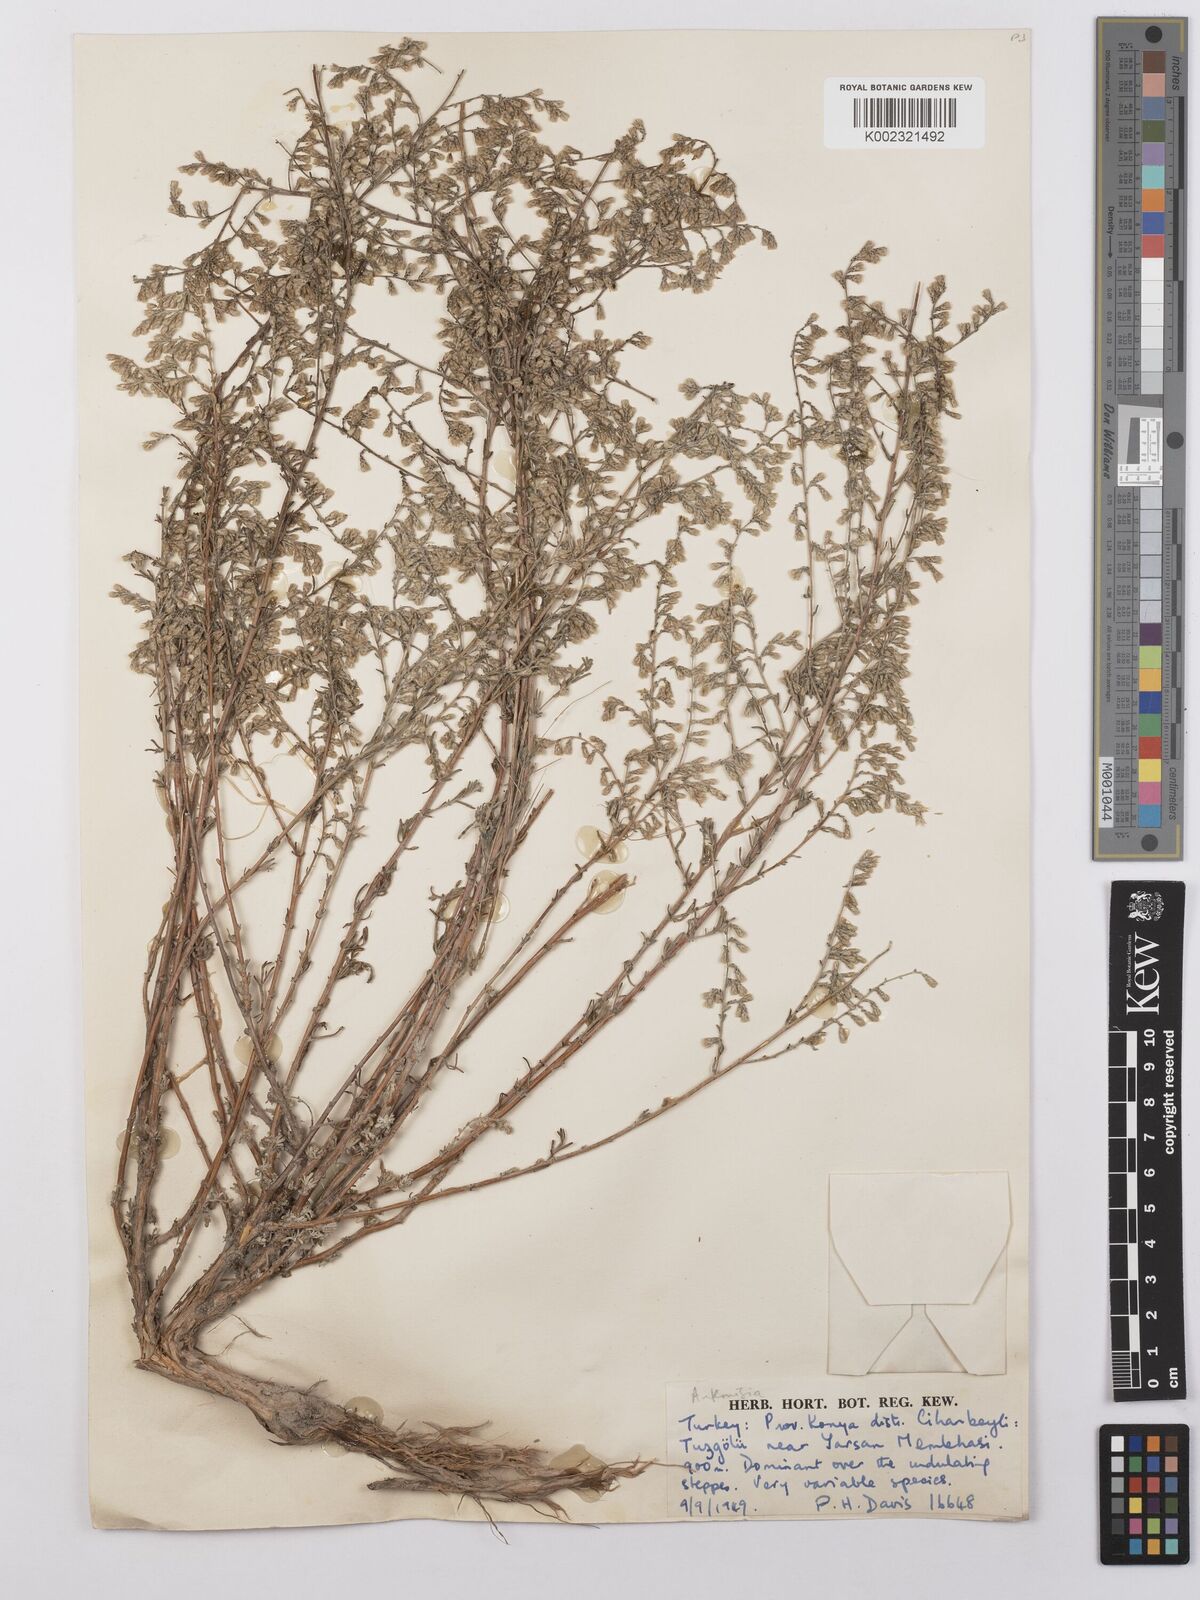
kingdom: Plantae
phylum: Tracheophyta
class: Magnoliopsida
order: Asterales
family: Asteraceae
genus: Artemisia
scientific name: Artemisia taurica
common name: Tauric wormwood
